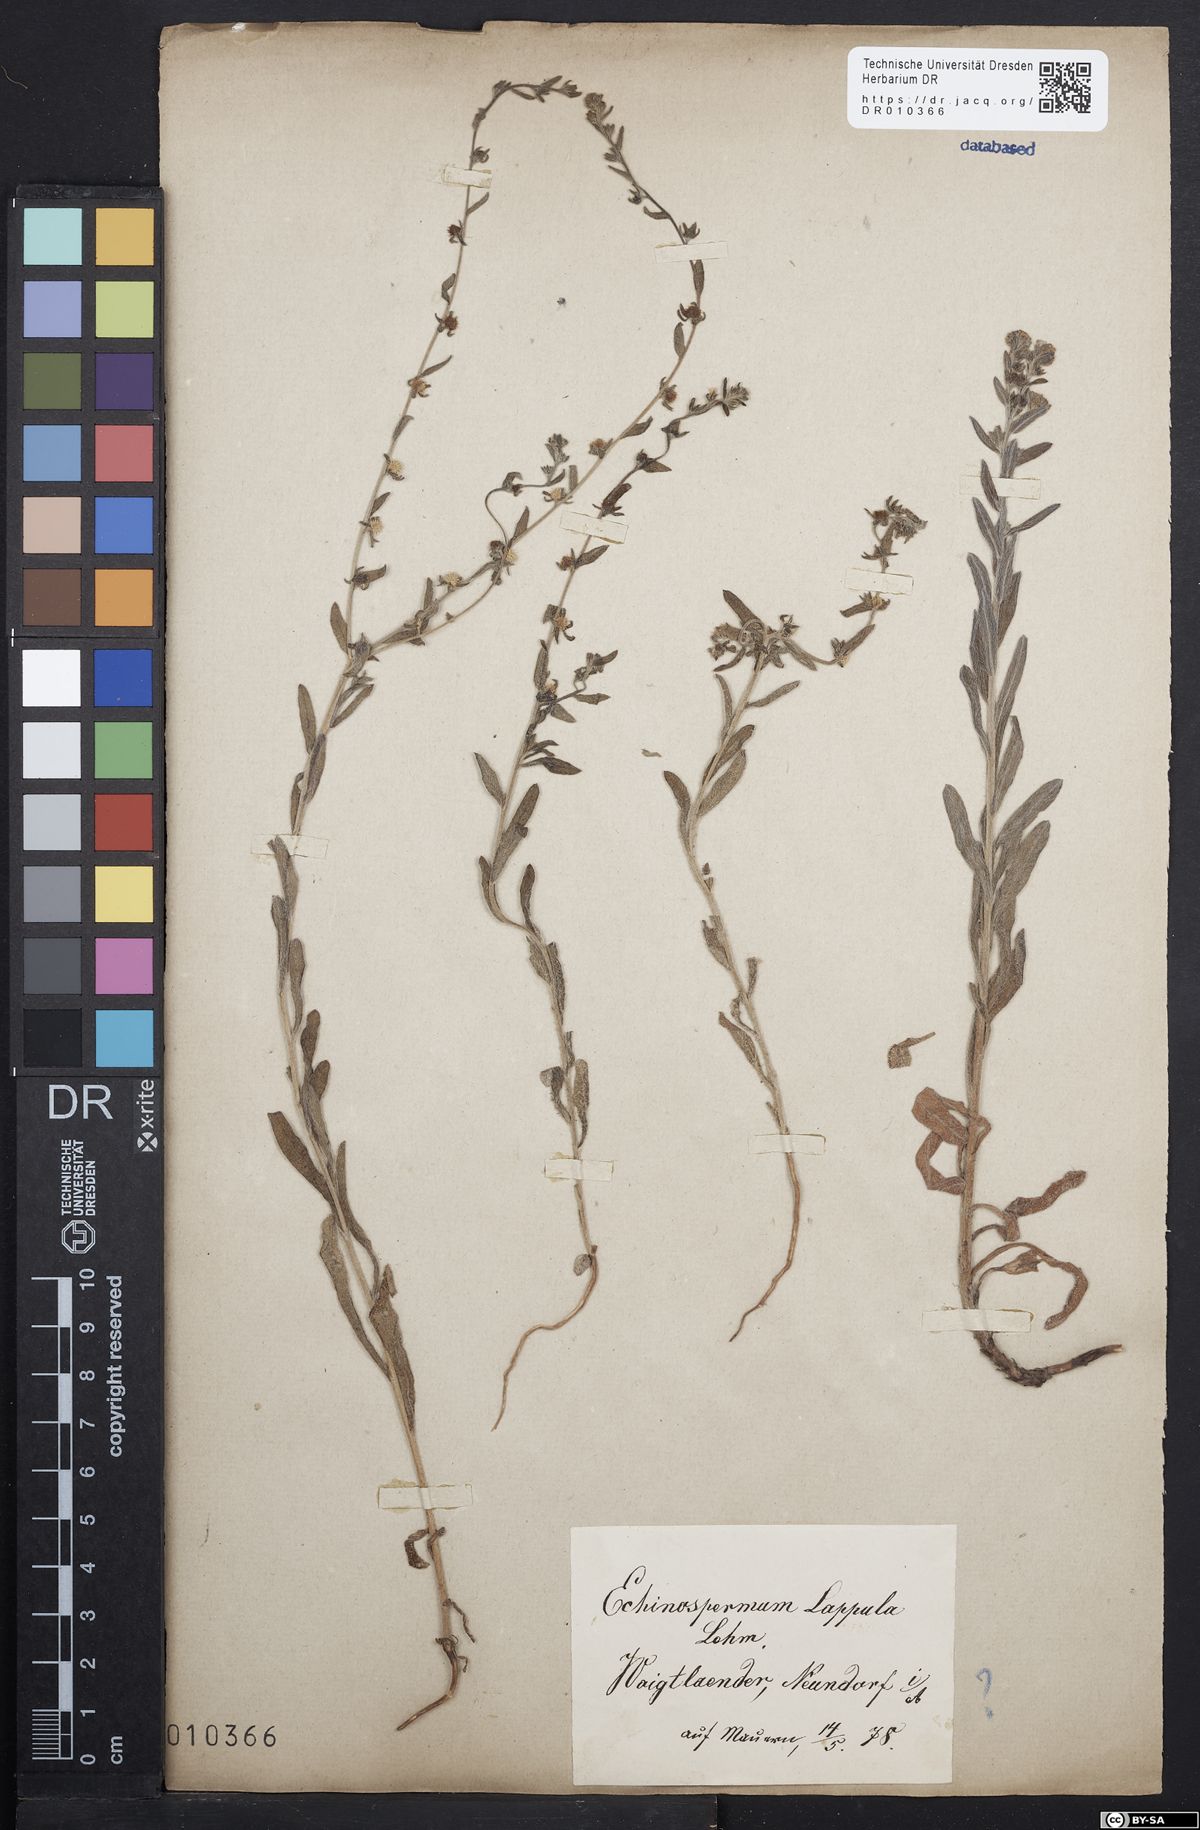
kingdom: Plantae
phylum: Tracheophyta
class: Magnoliopsida
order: Boraginales
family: Boraginaceae
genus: Lappula
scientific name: Lappula squarrosa
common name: European stickseed
